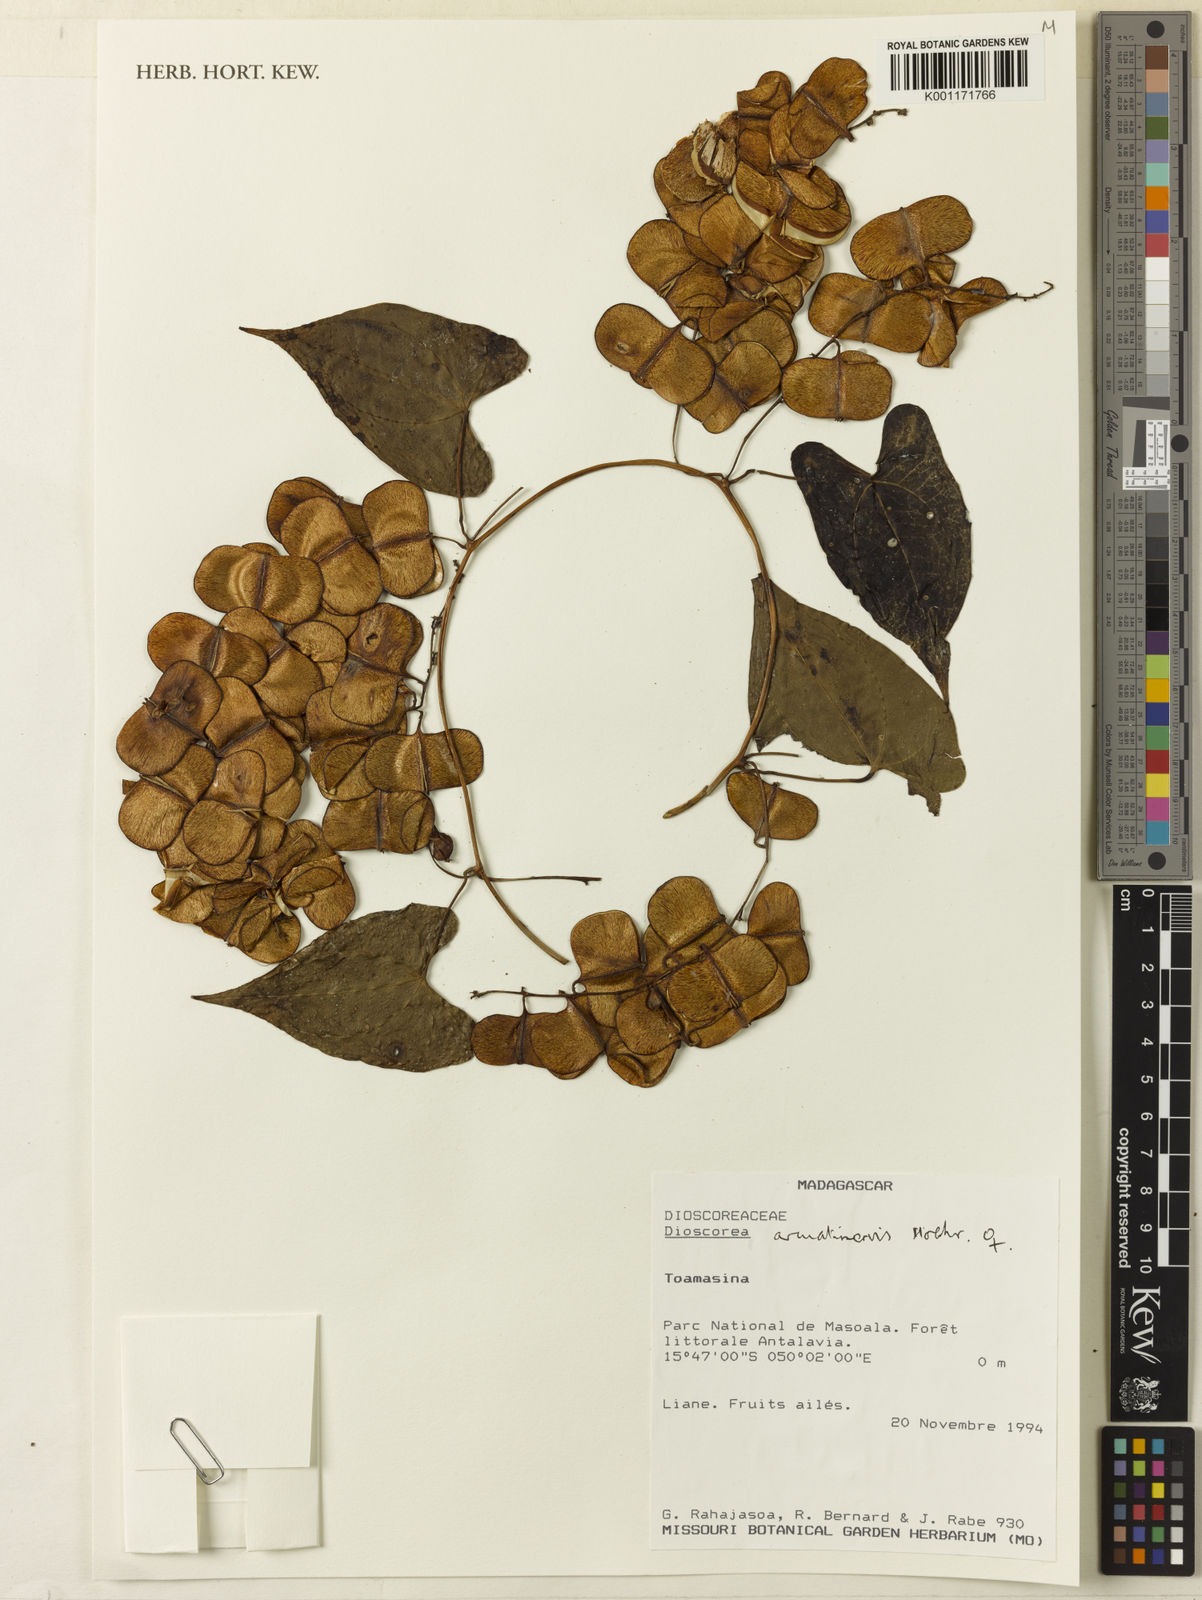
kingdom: Plantae
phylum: Tracheophyta
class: Liliopsida
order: Dioscoreales
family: Dioscoreaceae
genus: Dioscorea
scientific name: Dioscorea arcuatinervis
